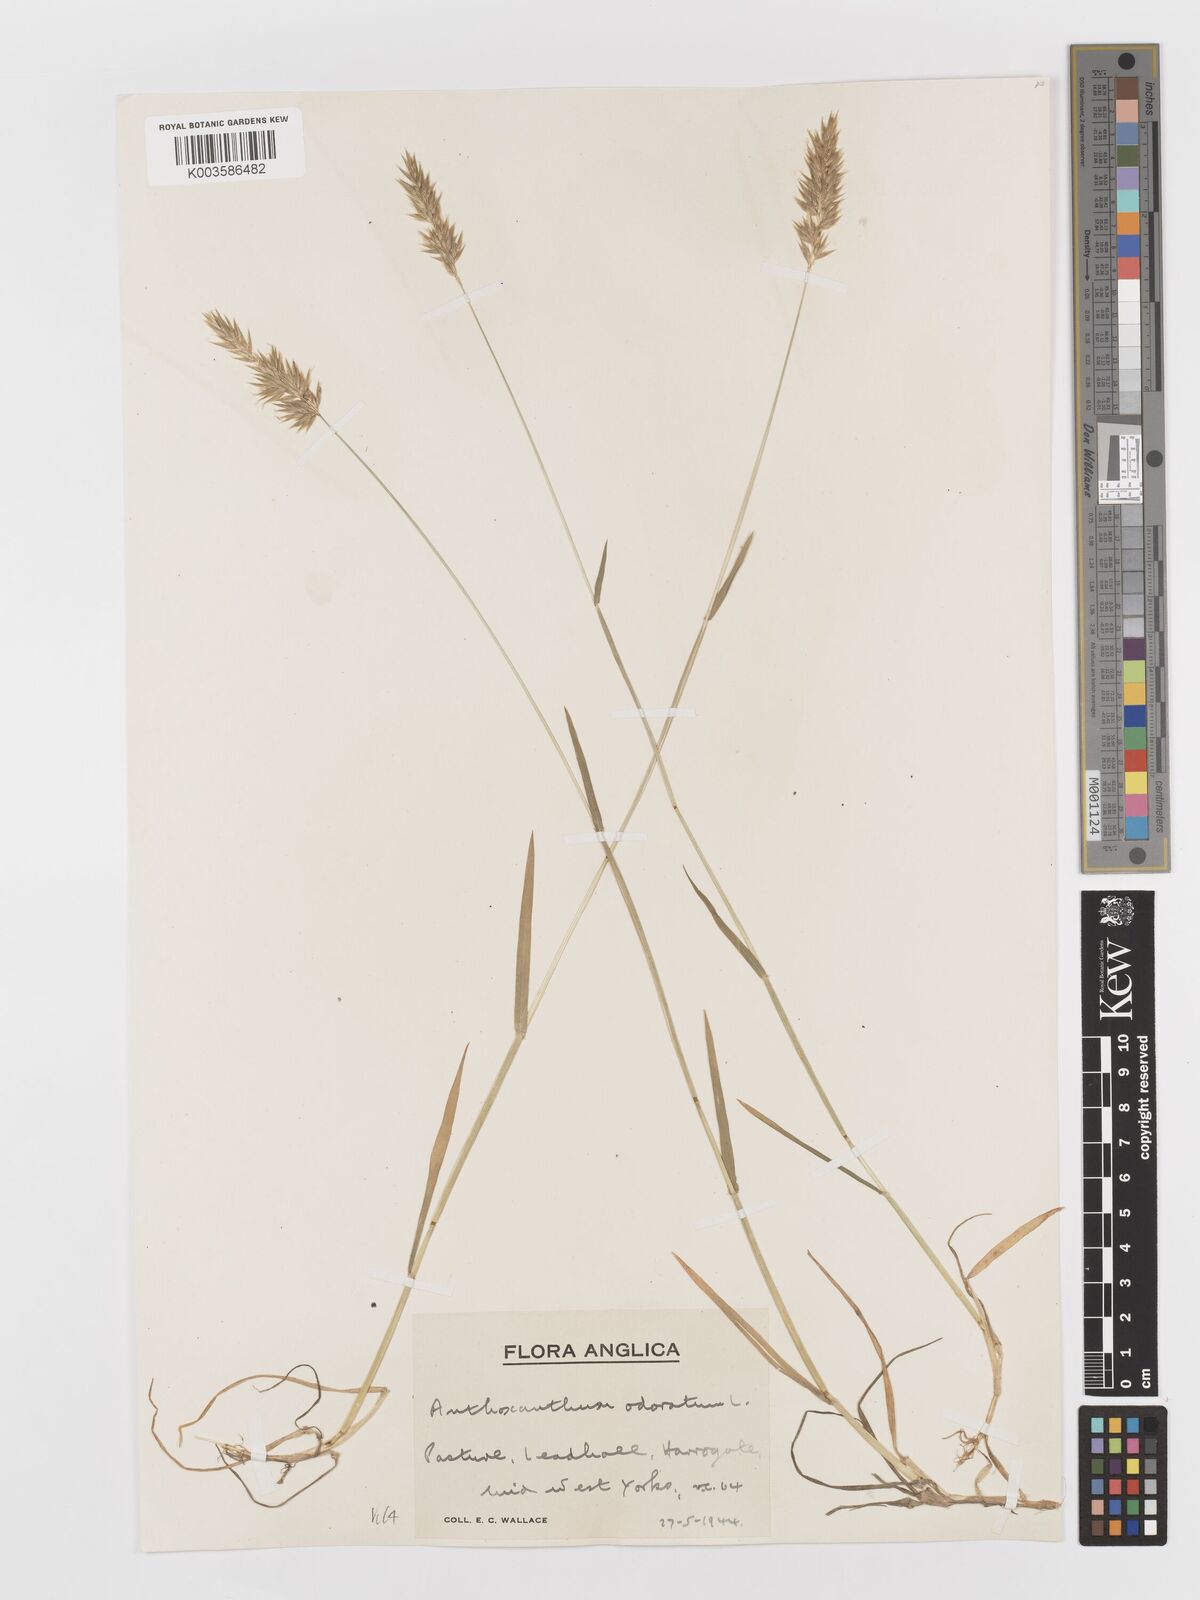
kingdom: Plantae
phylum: Tracheophyta
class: Liliopsida
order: Poales
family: Poaceae
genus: Anthoxanthum
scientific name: Anthoxanthum odoratum
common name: Sweet vernalgrass
